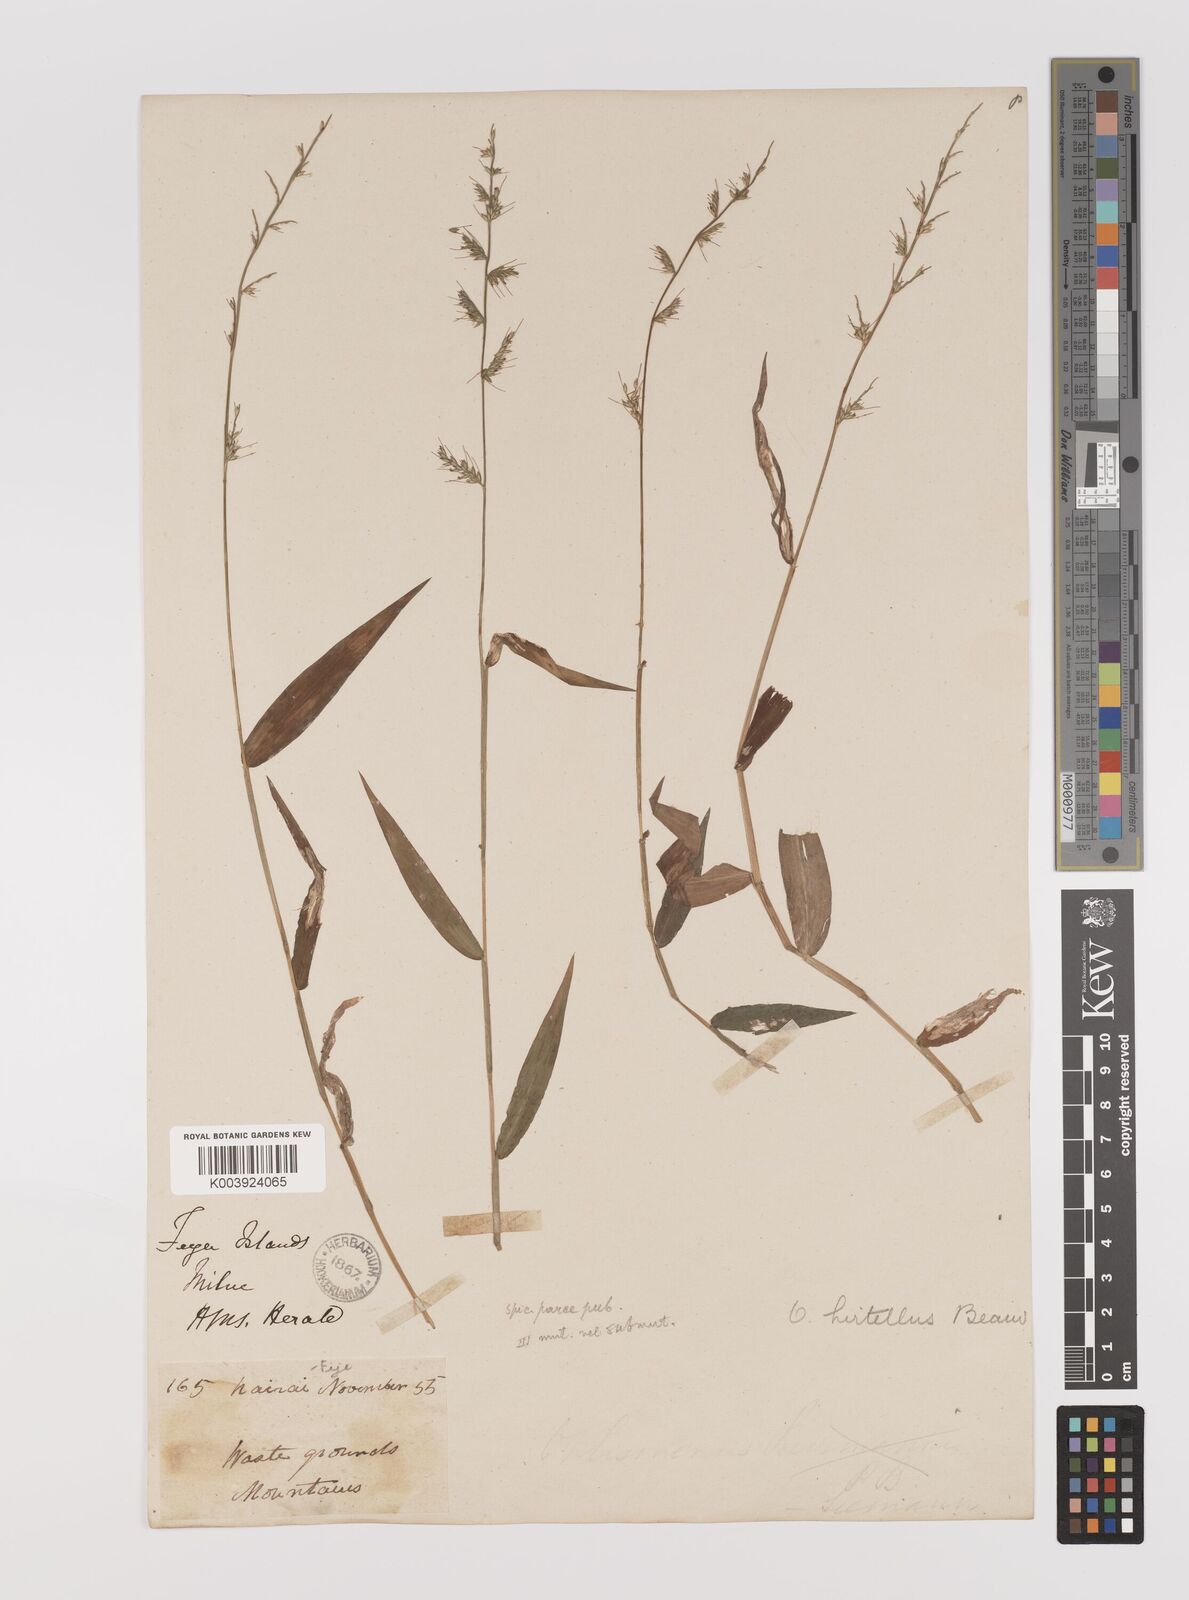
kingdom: Plantae
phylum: Tracheophyta
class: Liliopsida
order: Poales
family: Poaceae
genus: Oplismenus
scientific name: Oplismenus hirtellus
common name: Basketgrass
